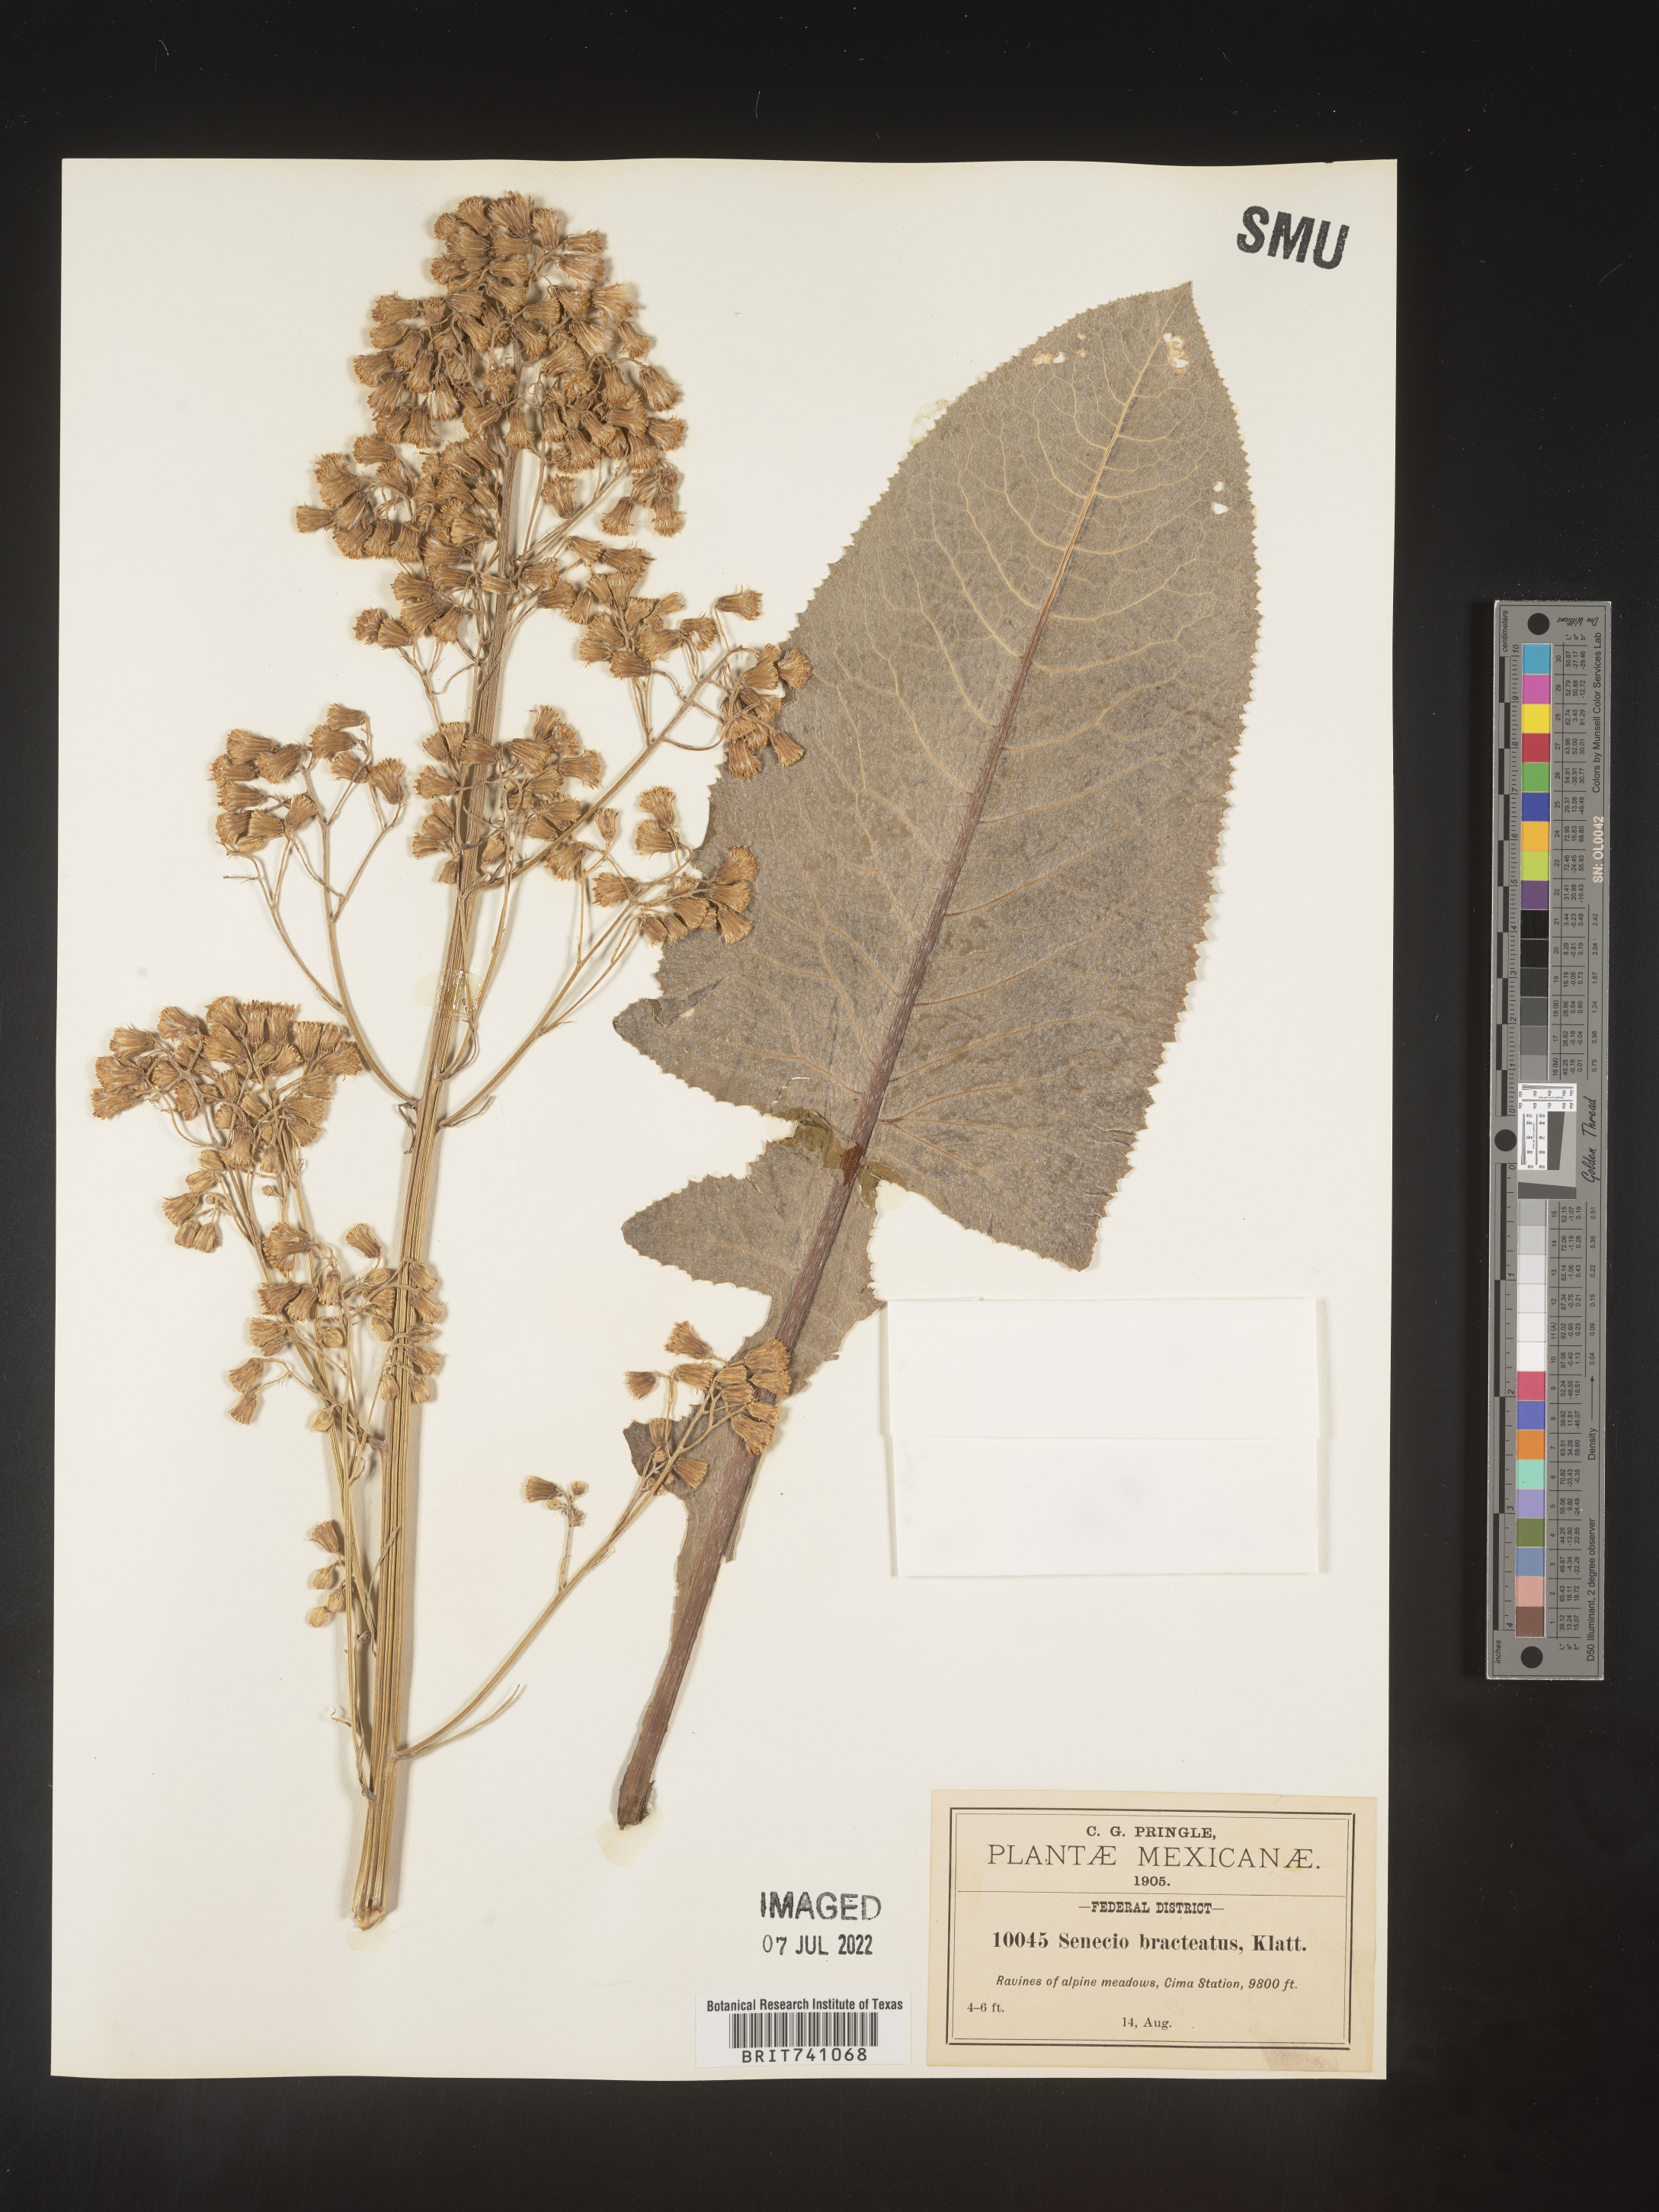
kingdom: Plantae
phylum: Tracheophyta
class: Magnoliopsida
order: Asterales
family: Asteraceae
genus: Senecio
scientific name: Senecio
